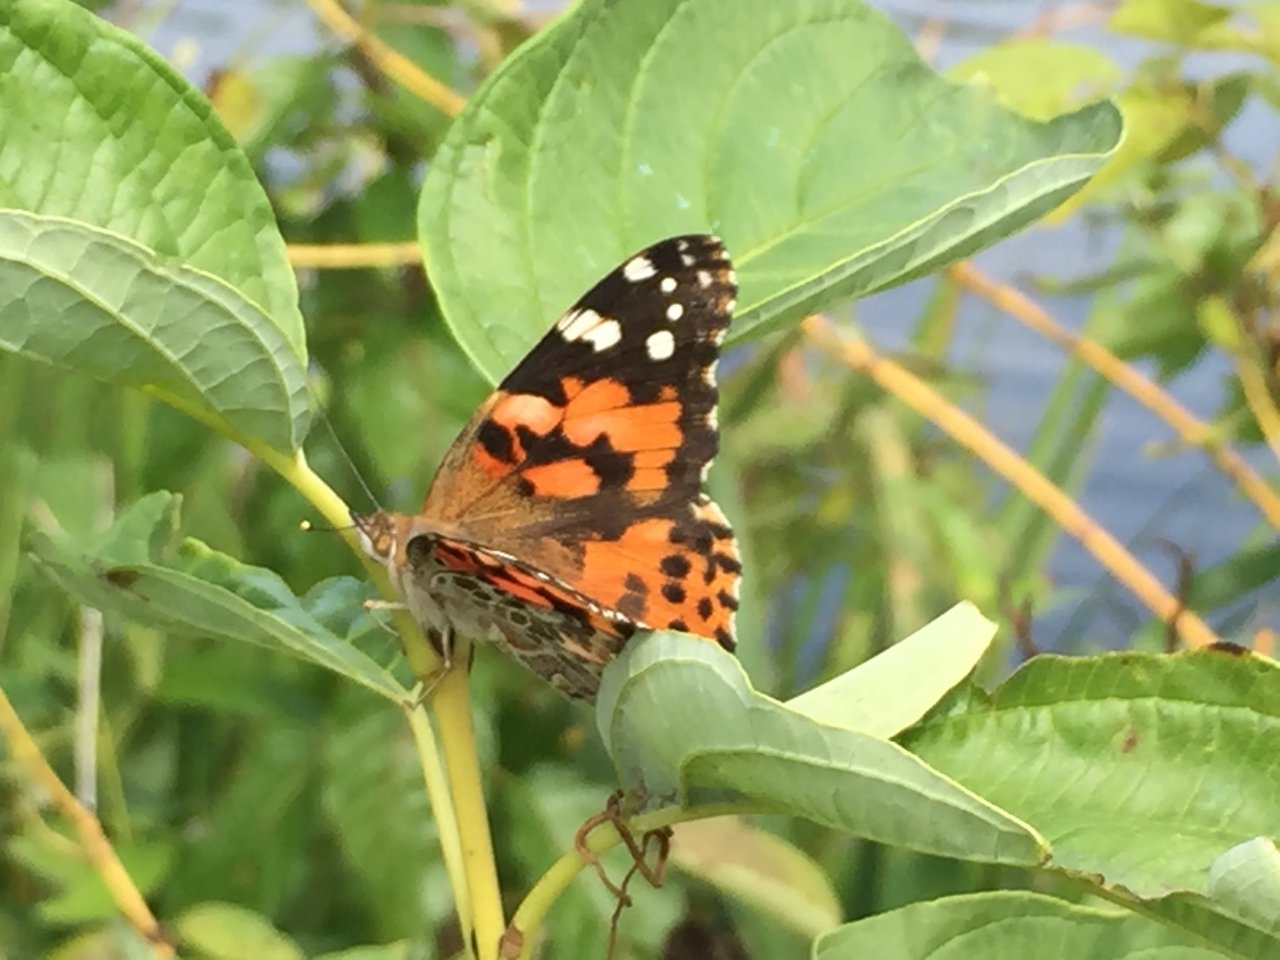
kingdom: Animalia
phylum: Arthropoda
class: Insecta
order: Lepidoptera
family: Nymphalidae
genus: Vanessa
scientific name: Vanessa cardui
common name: Painted Lady
